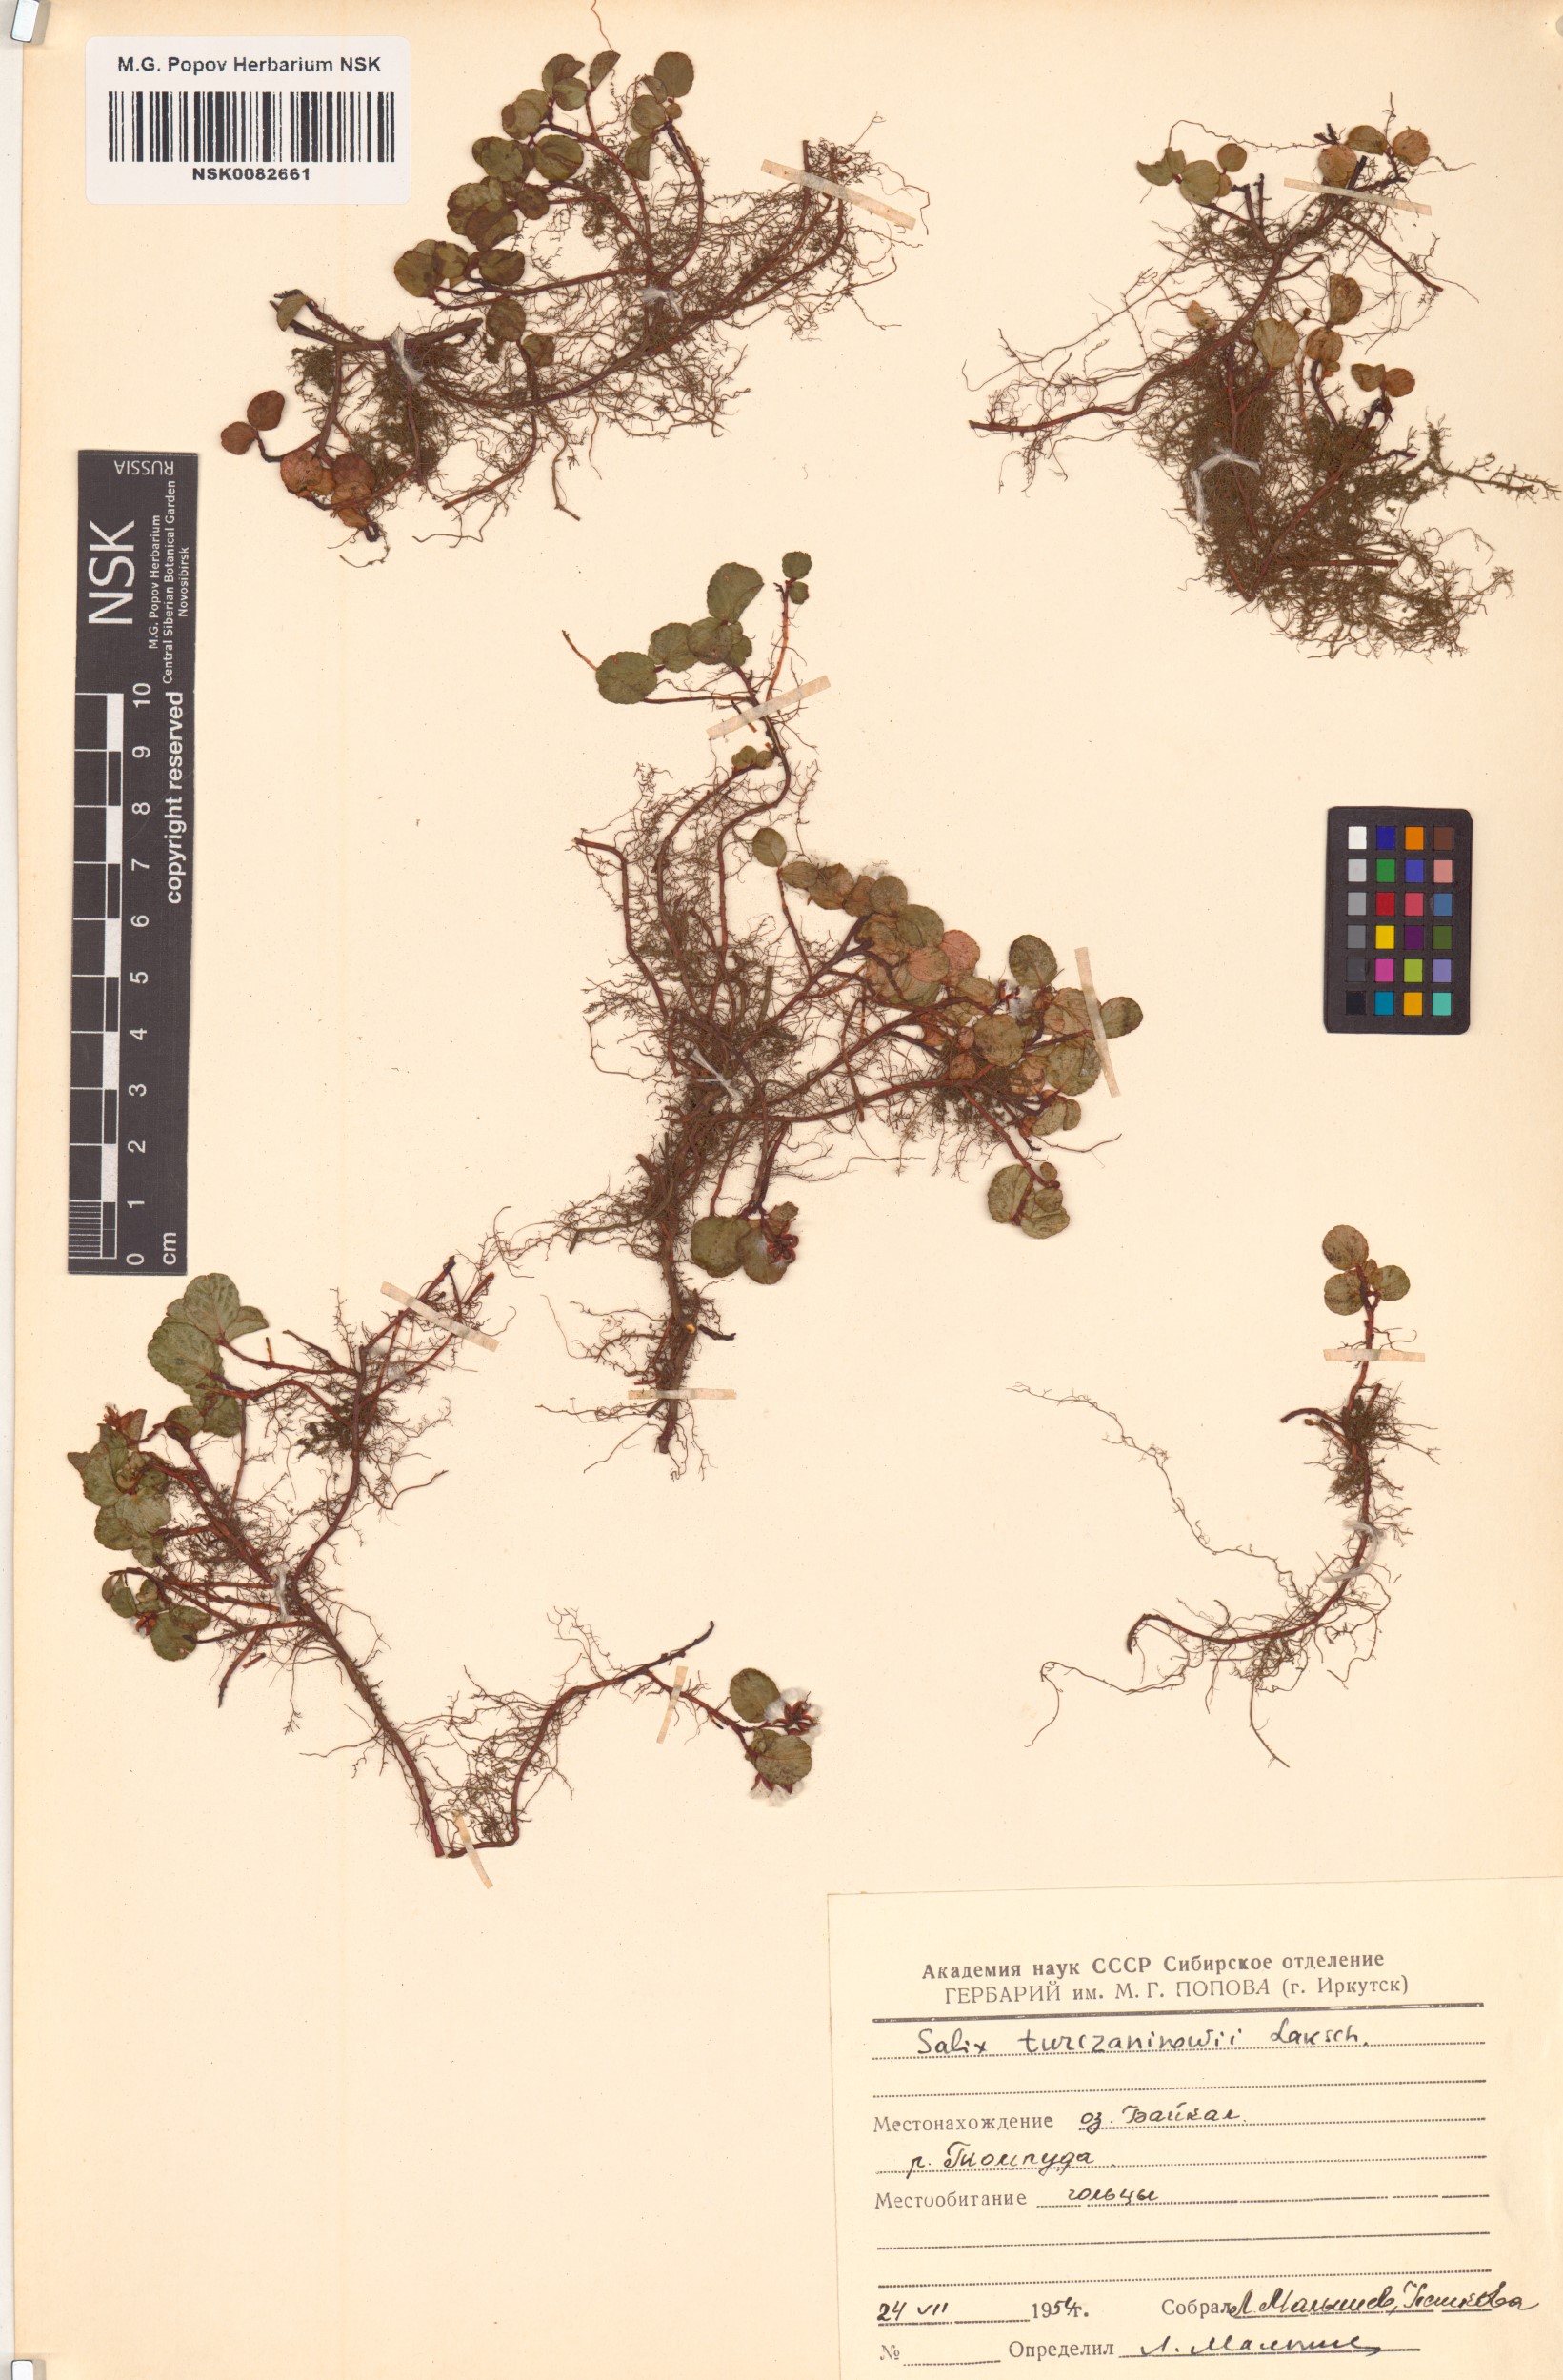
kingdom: Plantae
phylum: Tracheophyta
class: Magnoliopsida
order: Malpighiales
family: Salicaceae
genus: Salix
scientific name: Salix turczaninowii
